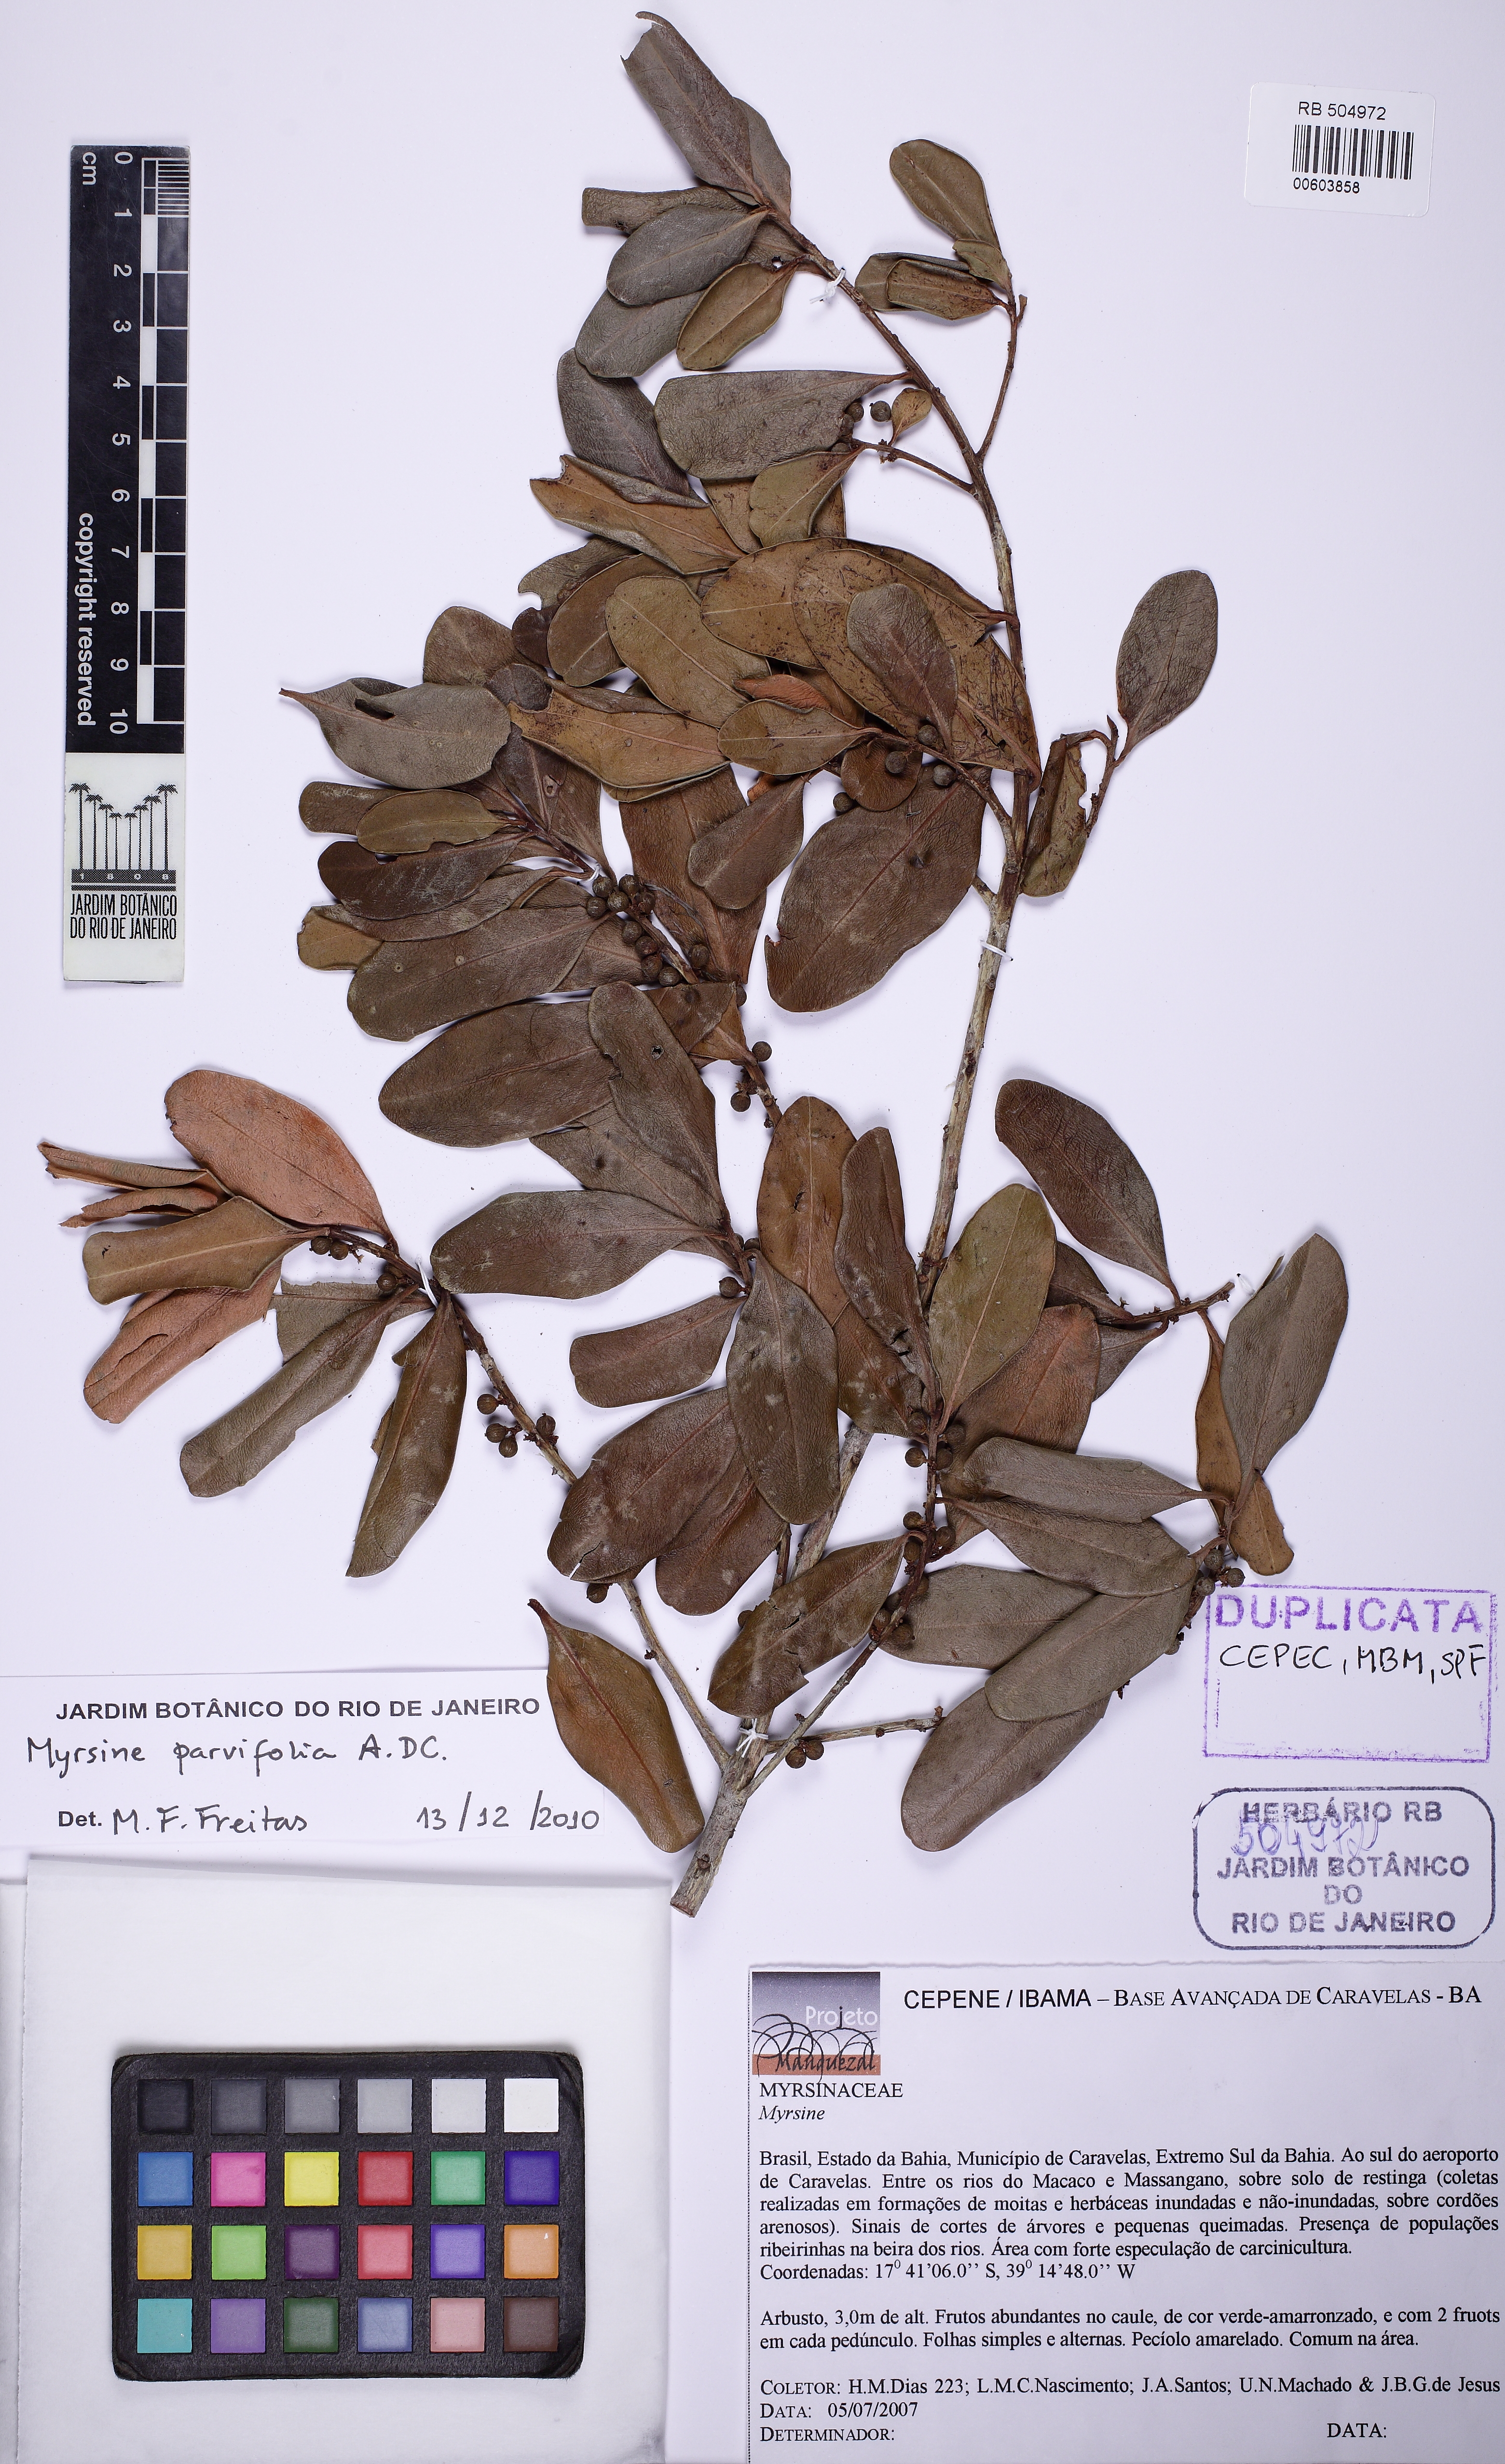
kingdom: Plantae
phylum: Tracheophyta
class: Magnoliopsida
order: Ericales
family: Primulaceae
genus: Myrsine
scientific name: Myrsine parvifolia
